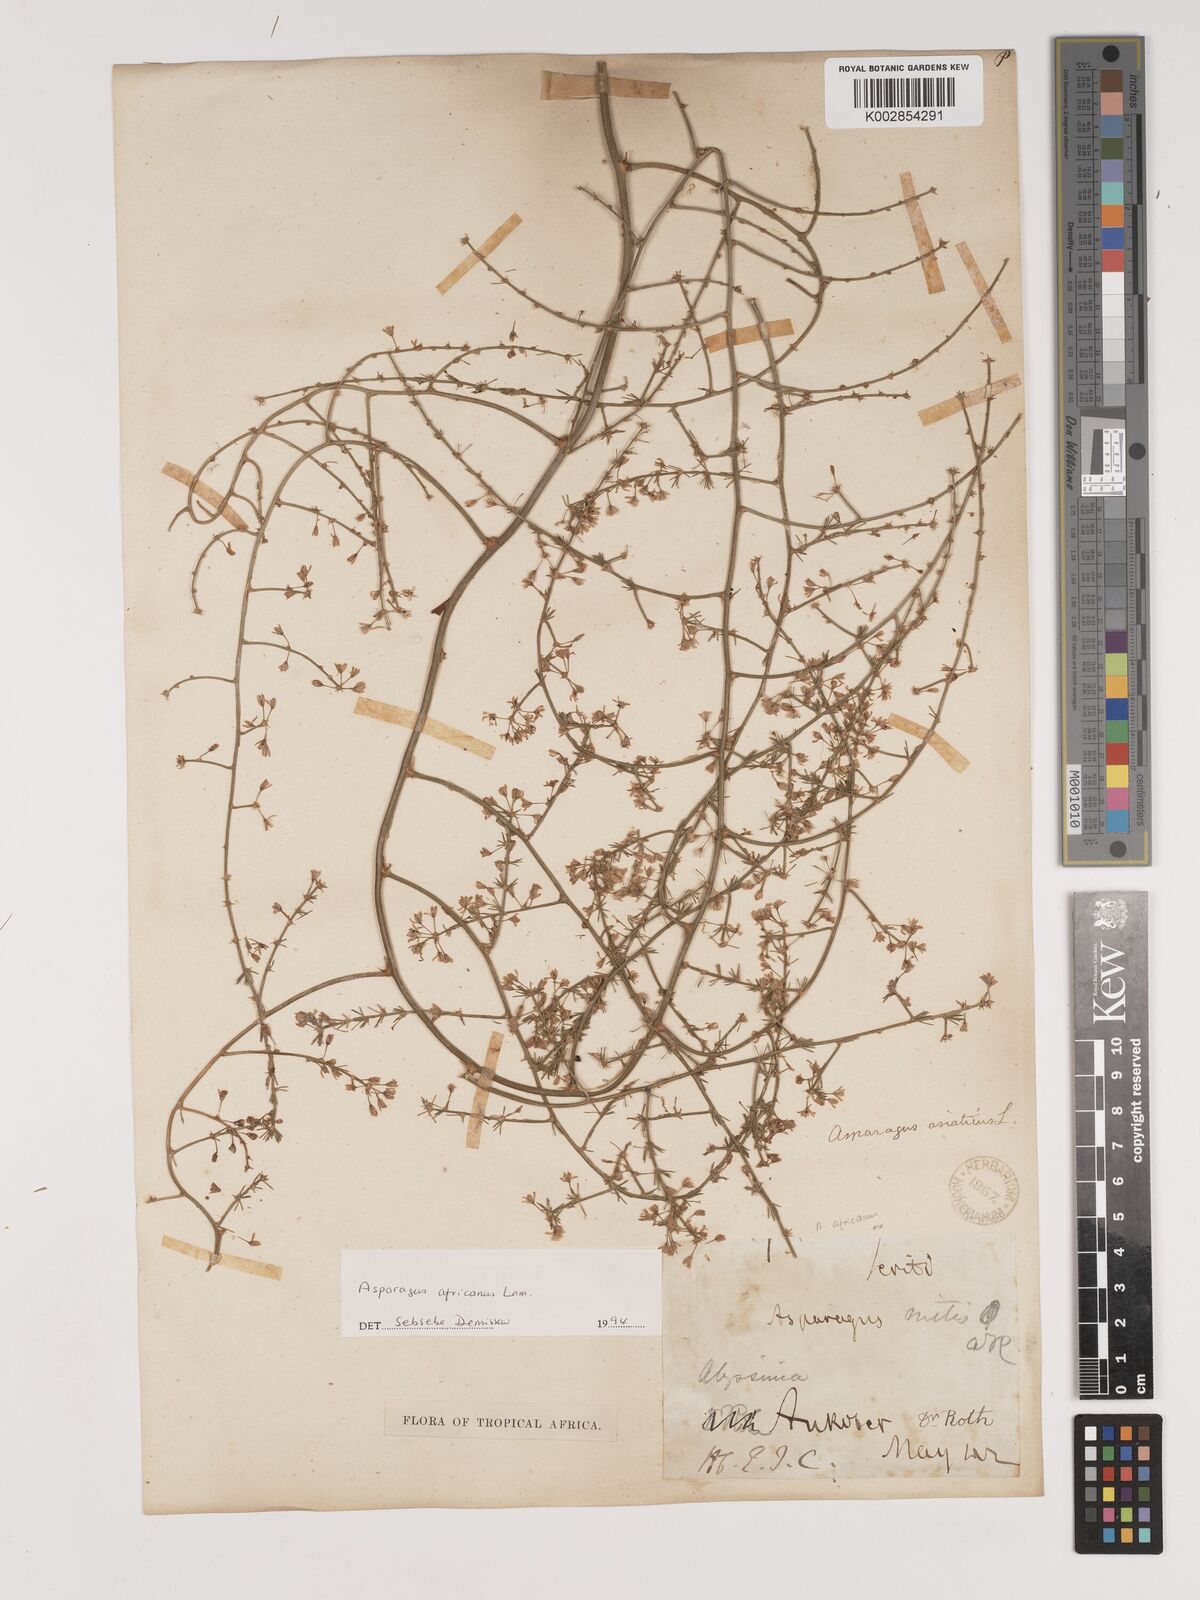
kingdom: Plantae
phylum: Tracheophyta
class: Liliopsida
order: Asparagales
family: Asparagaceae
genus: Asparagus
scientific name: Asparagus africanus
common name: Asparagus-fern
